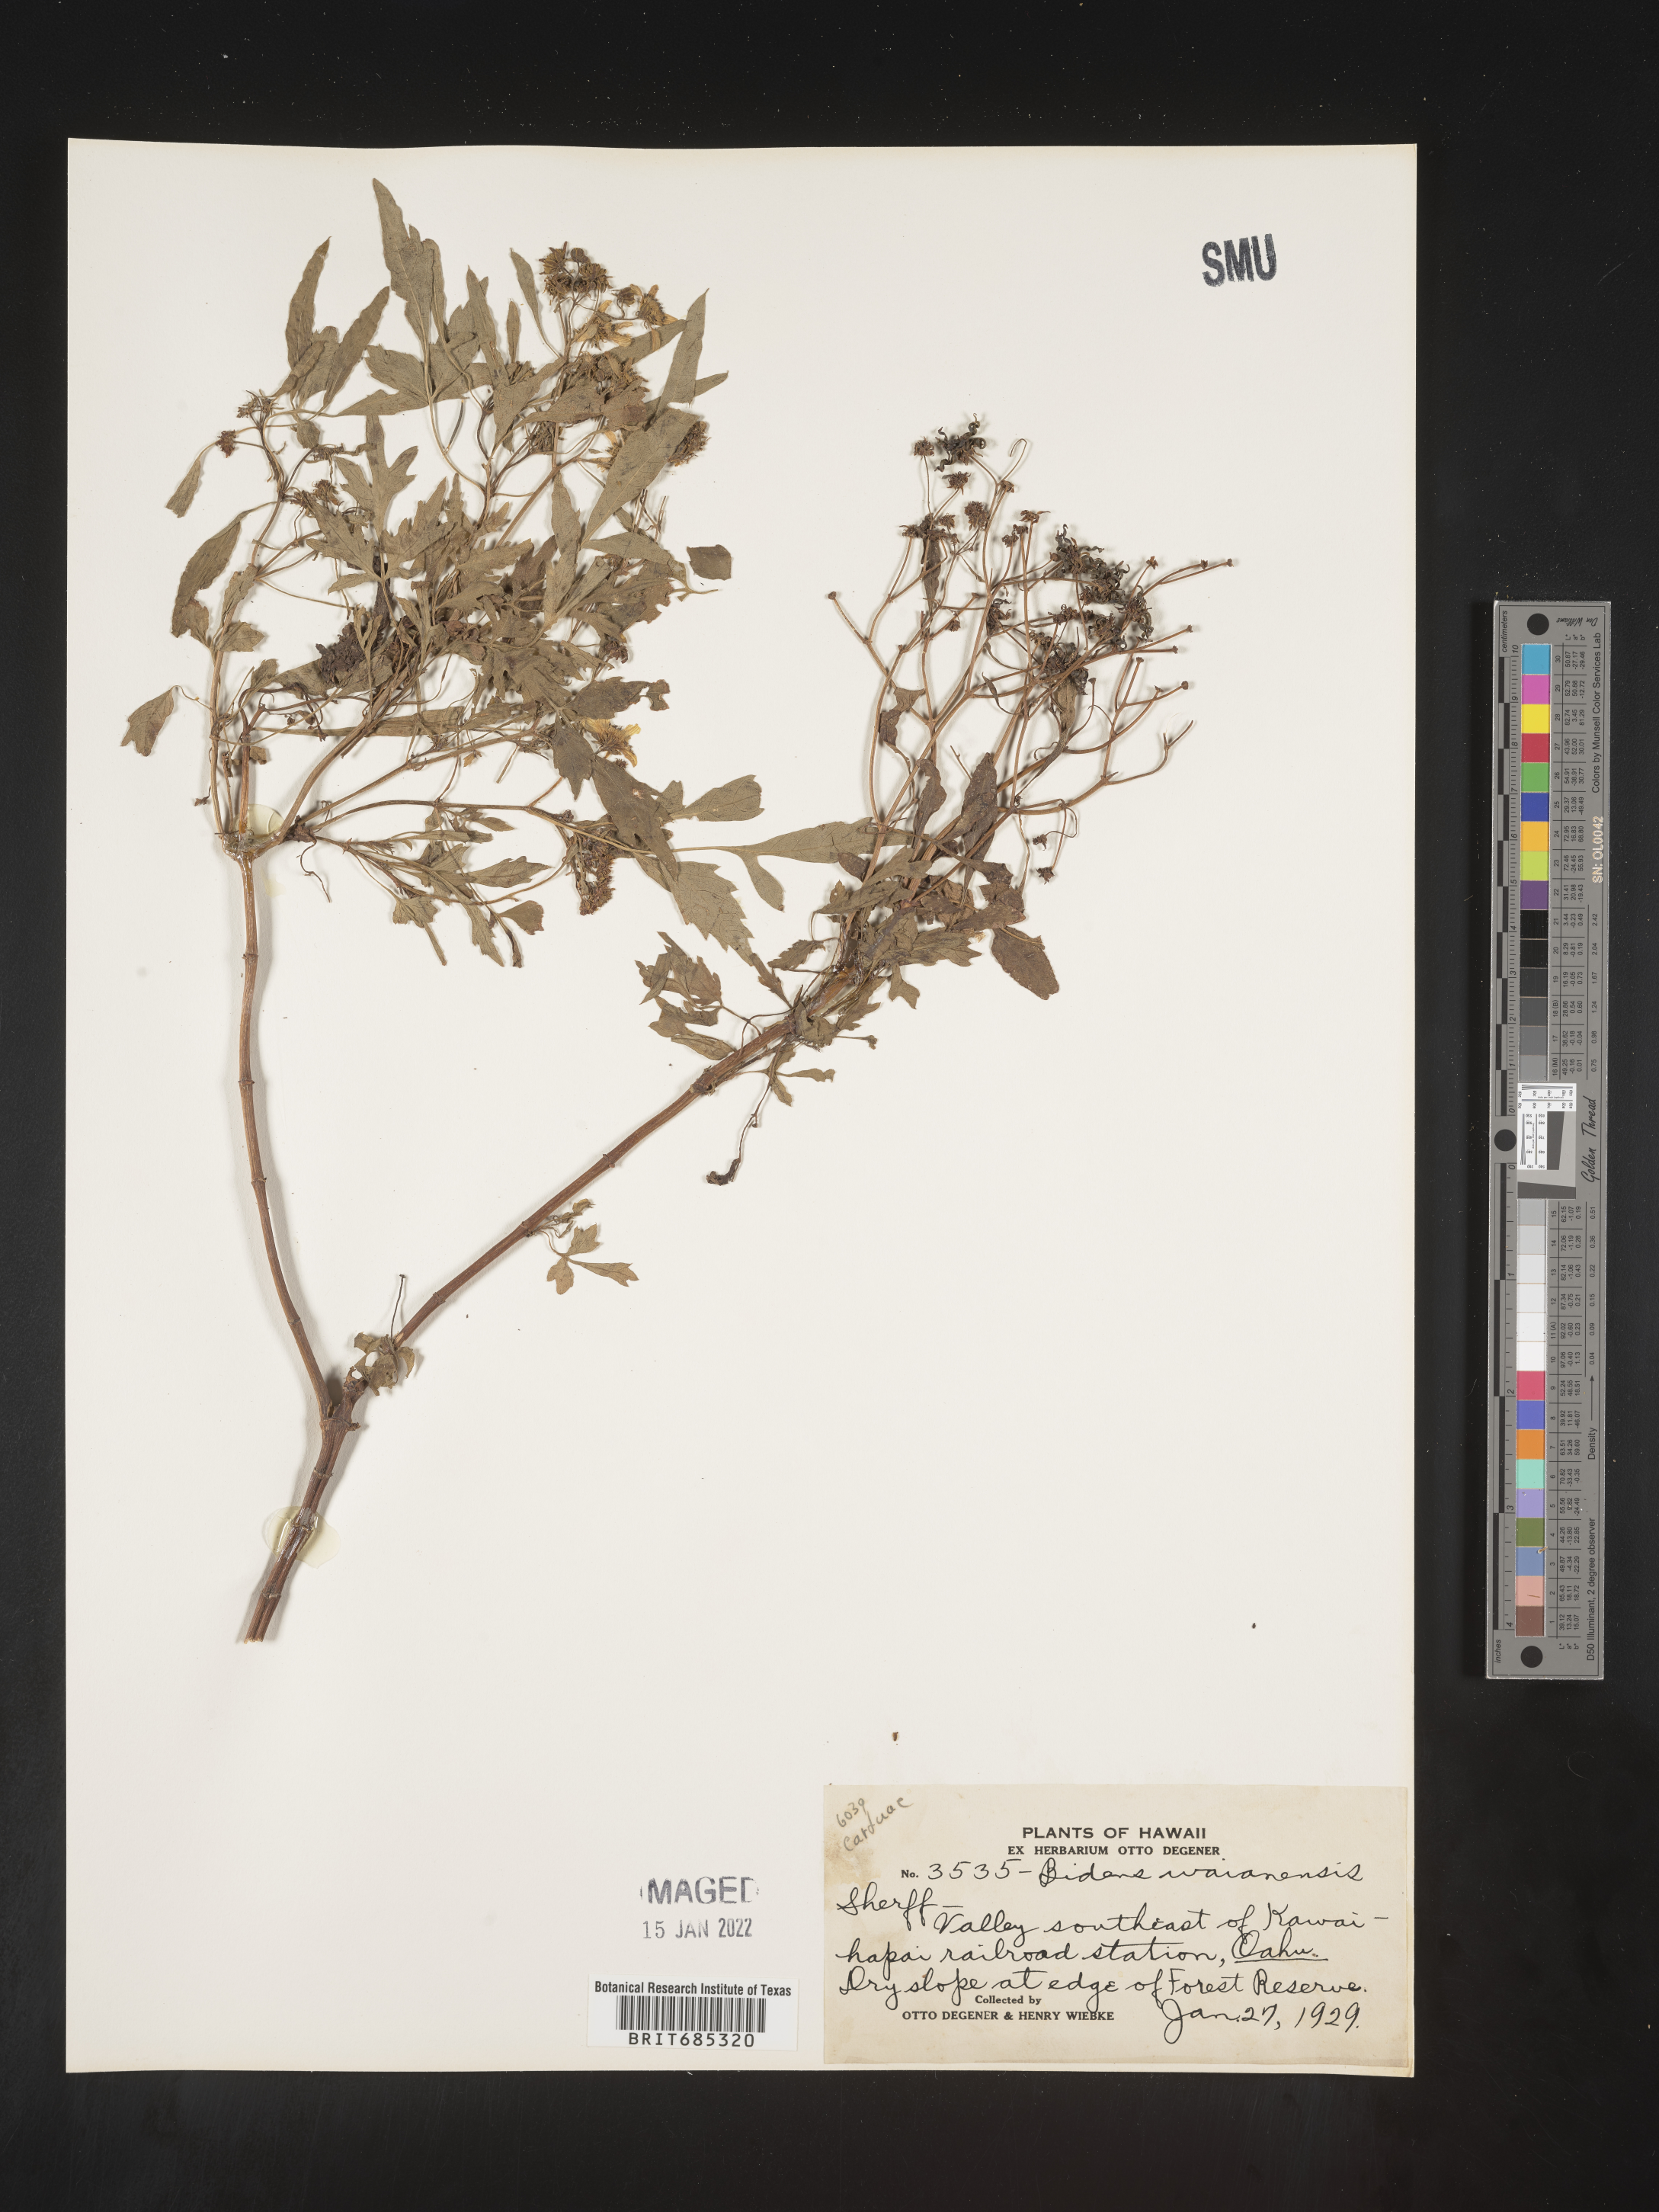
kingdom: Plantae
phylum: Tracheophyta
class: Magnoliopsida
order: Asterales
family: Asteraceae
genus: Bidens
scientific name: Bidens
